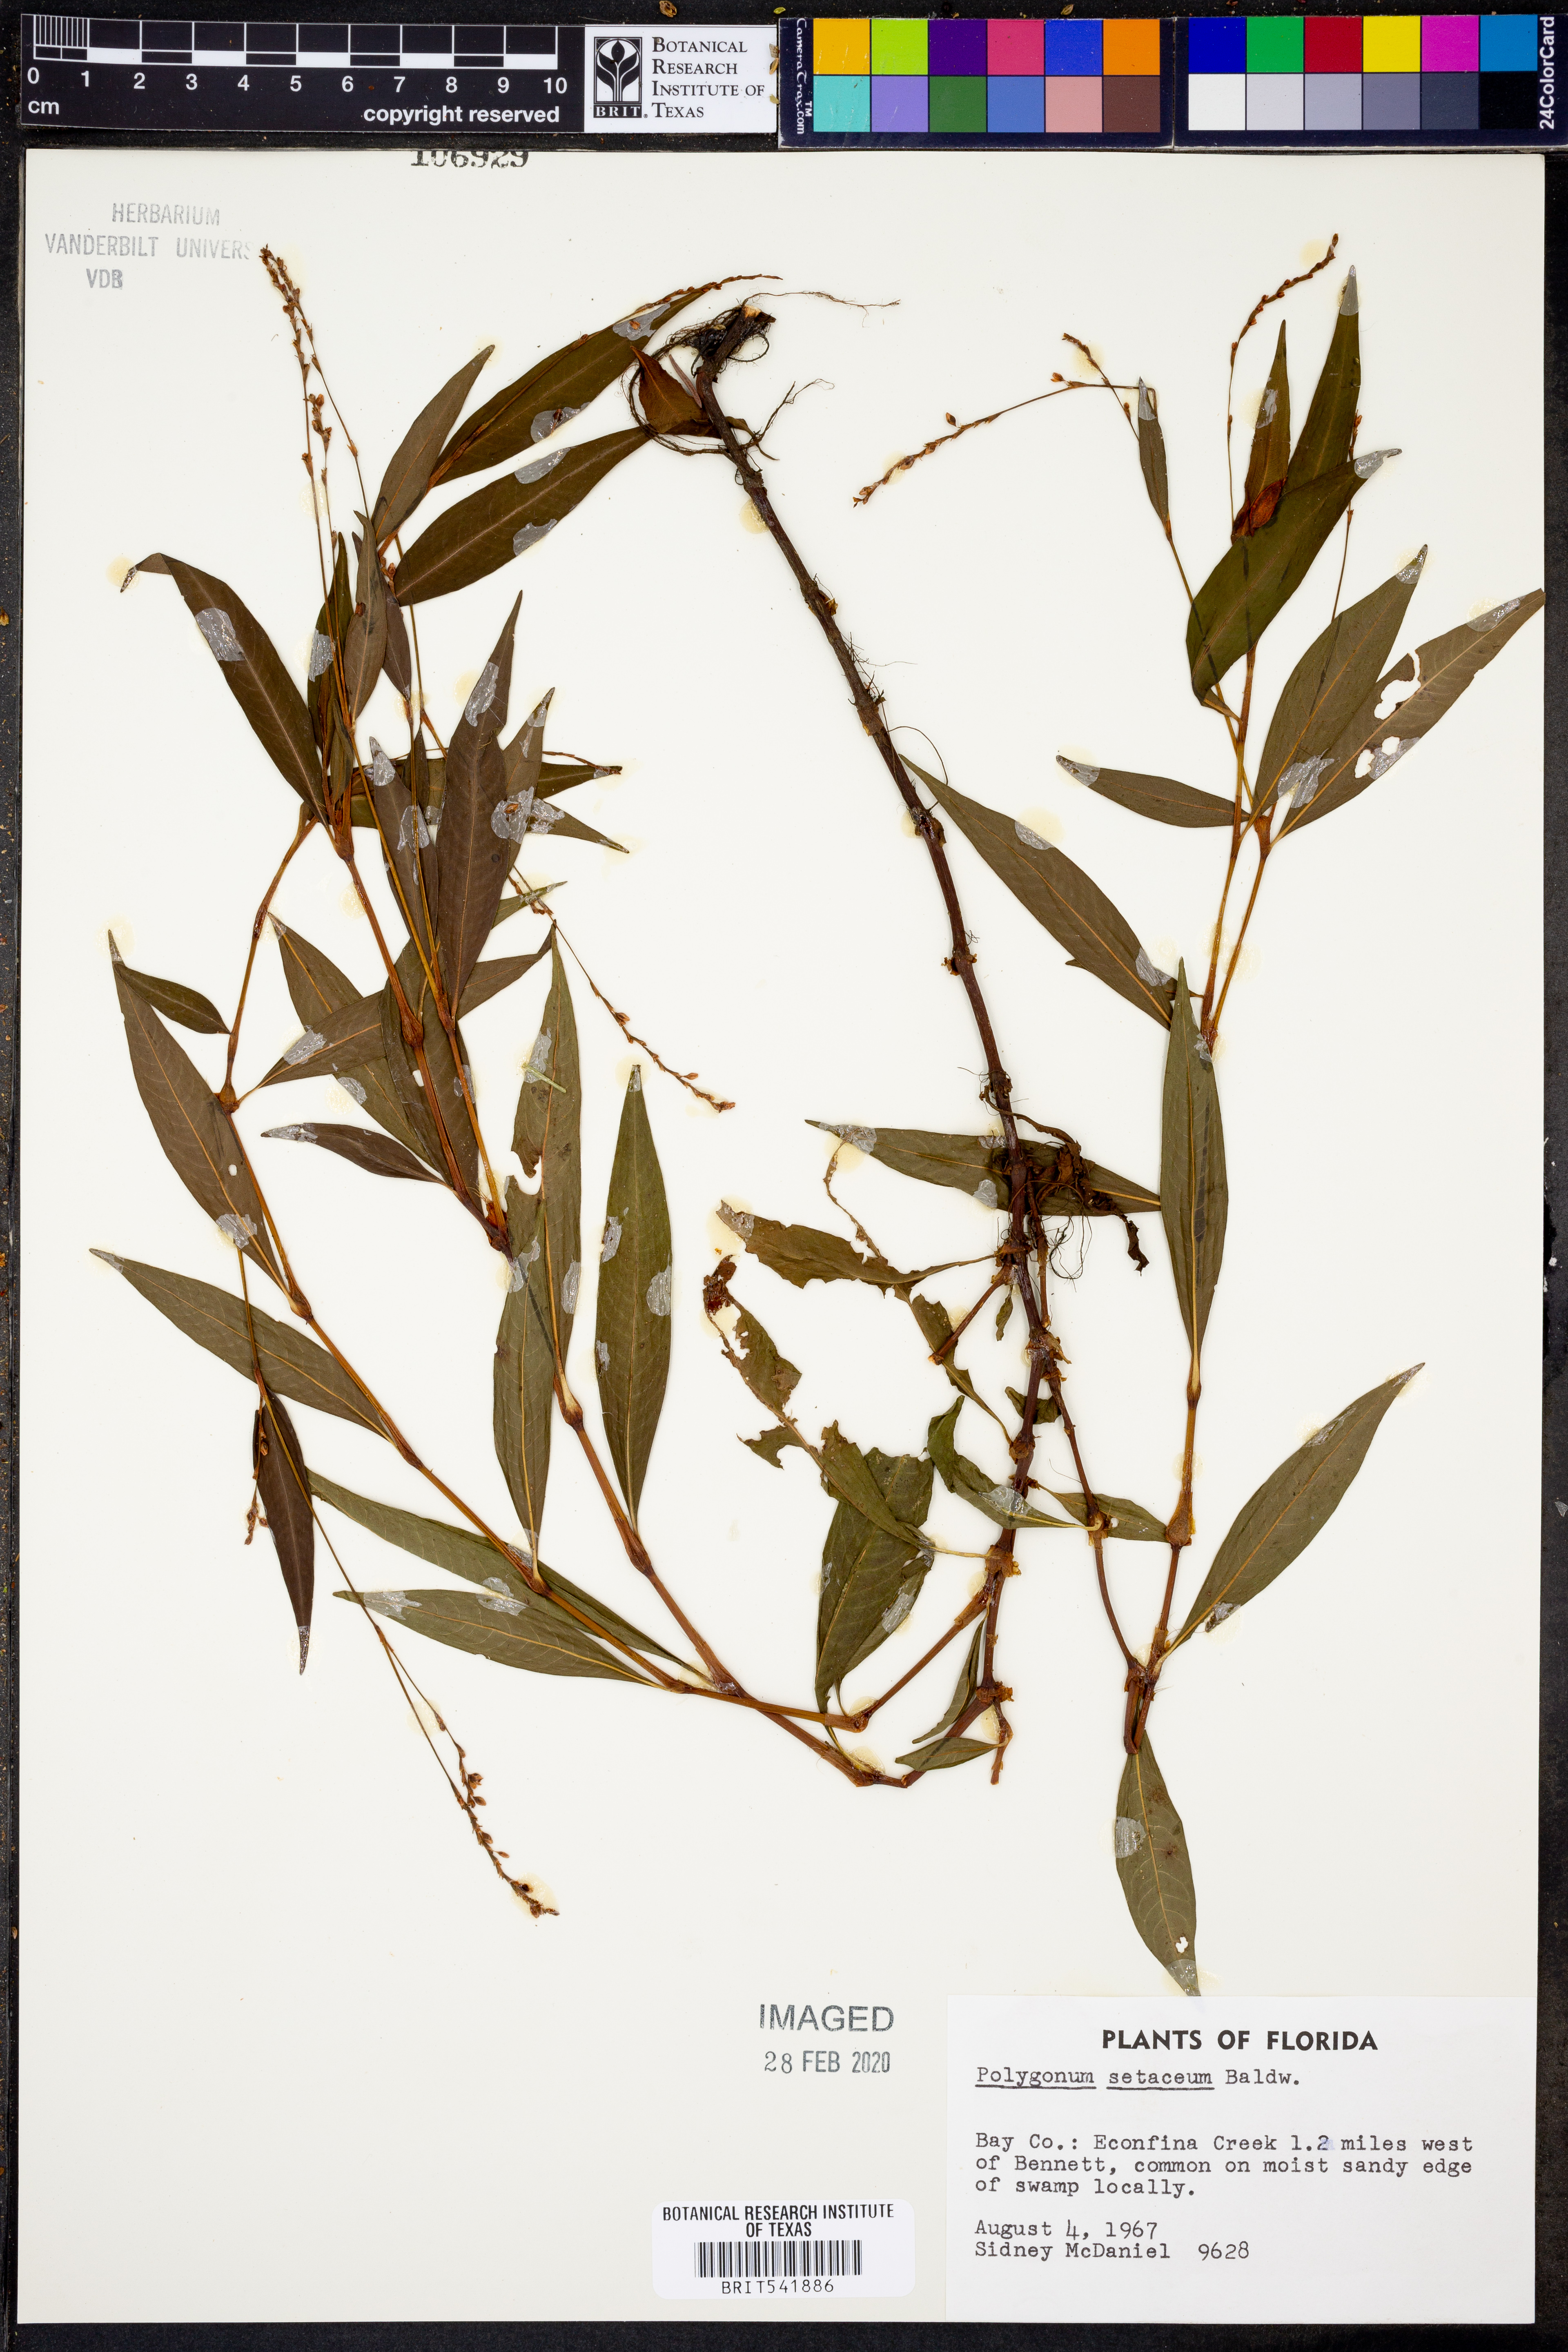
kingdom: Plantae
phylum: Tracheophyta
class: Magnoliopsida
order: Caryophyllales
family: Polygonaceae
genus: Persicaria
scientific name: Persicaria setacea
